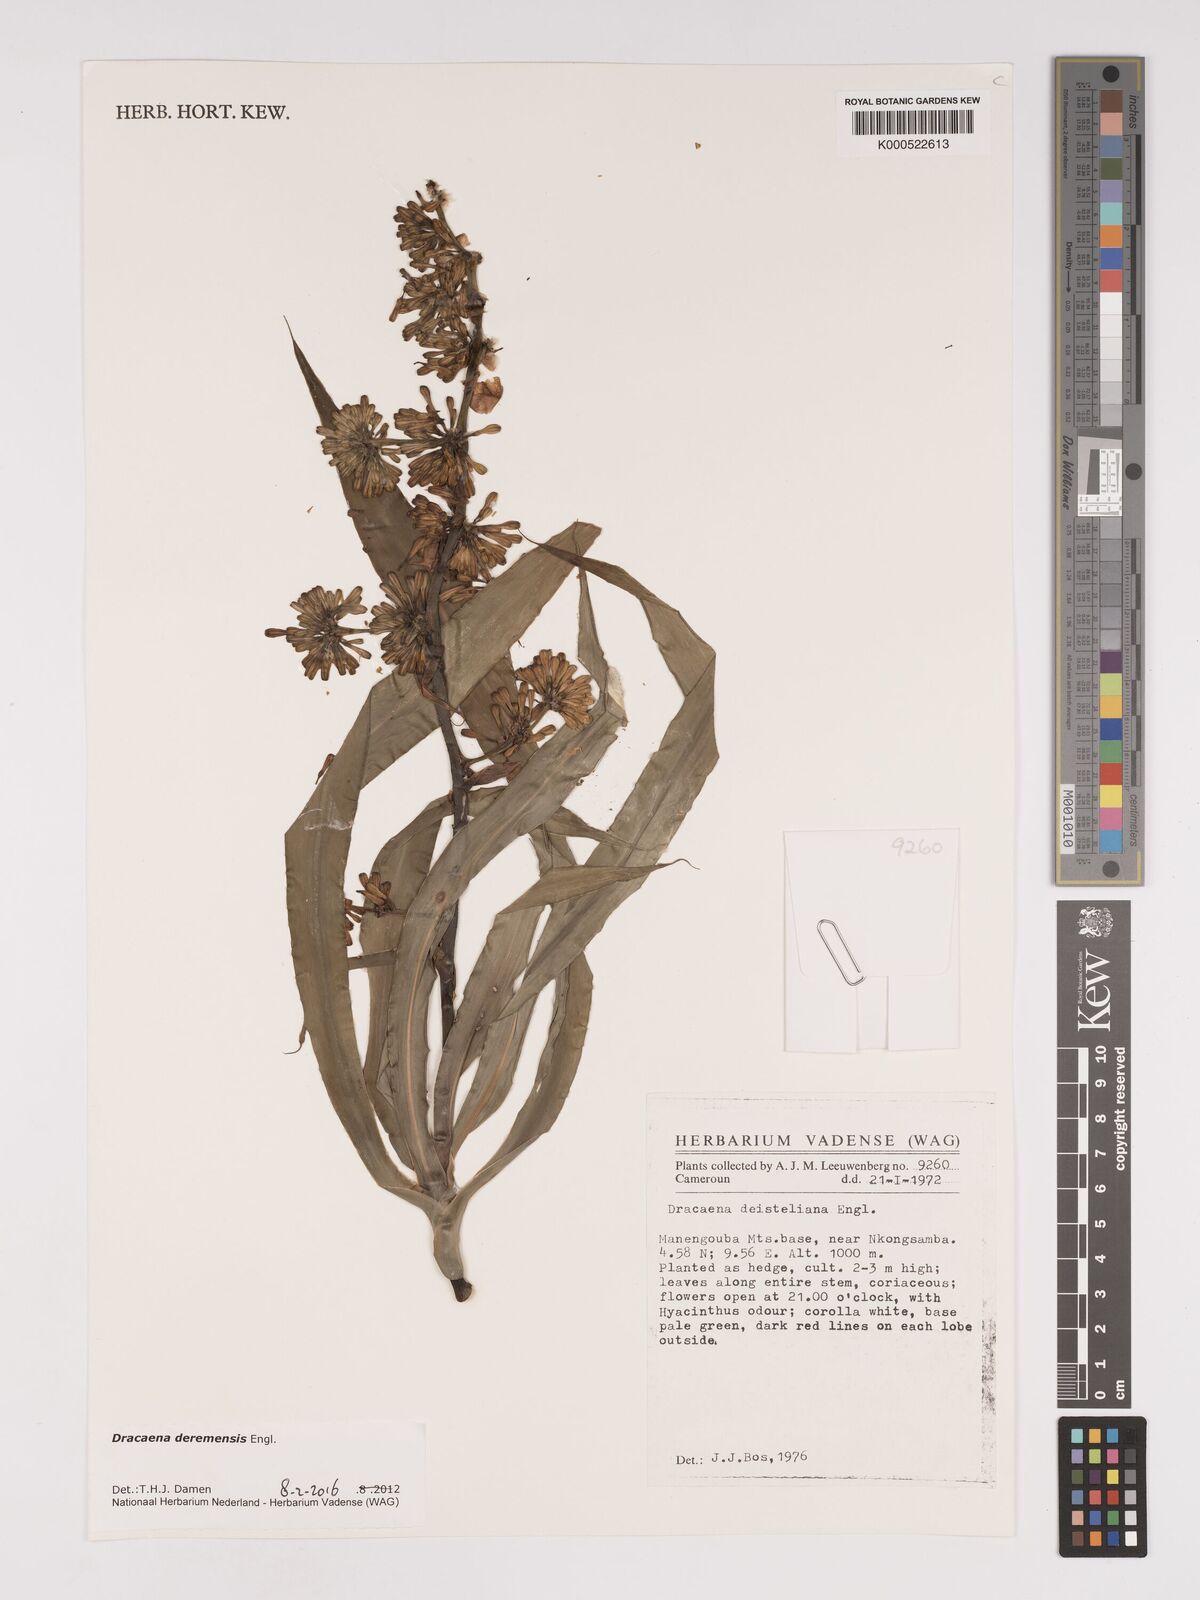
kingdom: Plantae
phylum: Tracheophyta
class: Liliopsida
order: Asparagales
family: Asparagaceae
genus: Dracaena
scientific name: Dracaena fragrans
